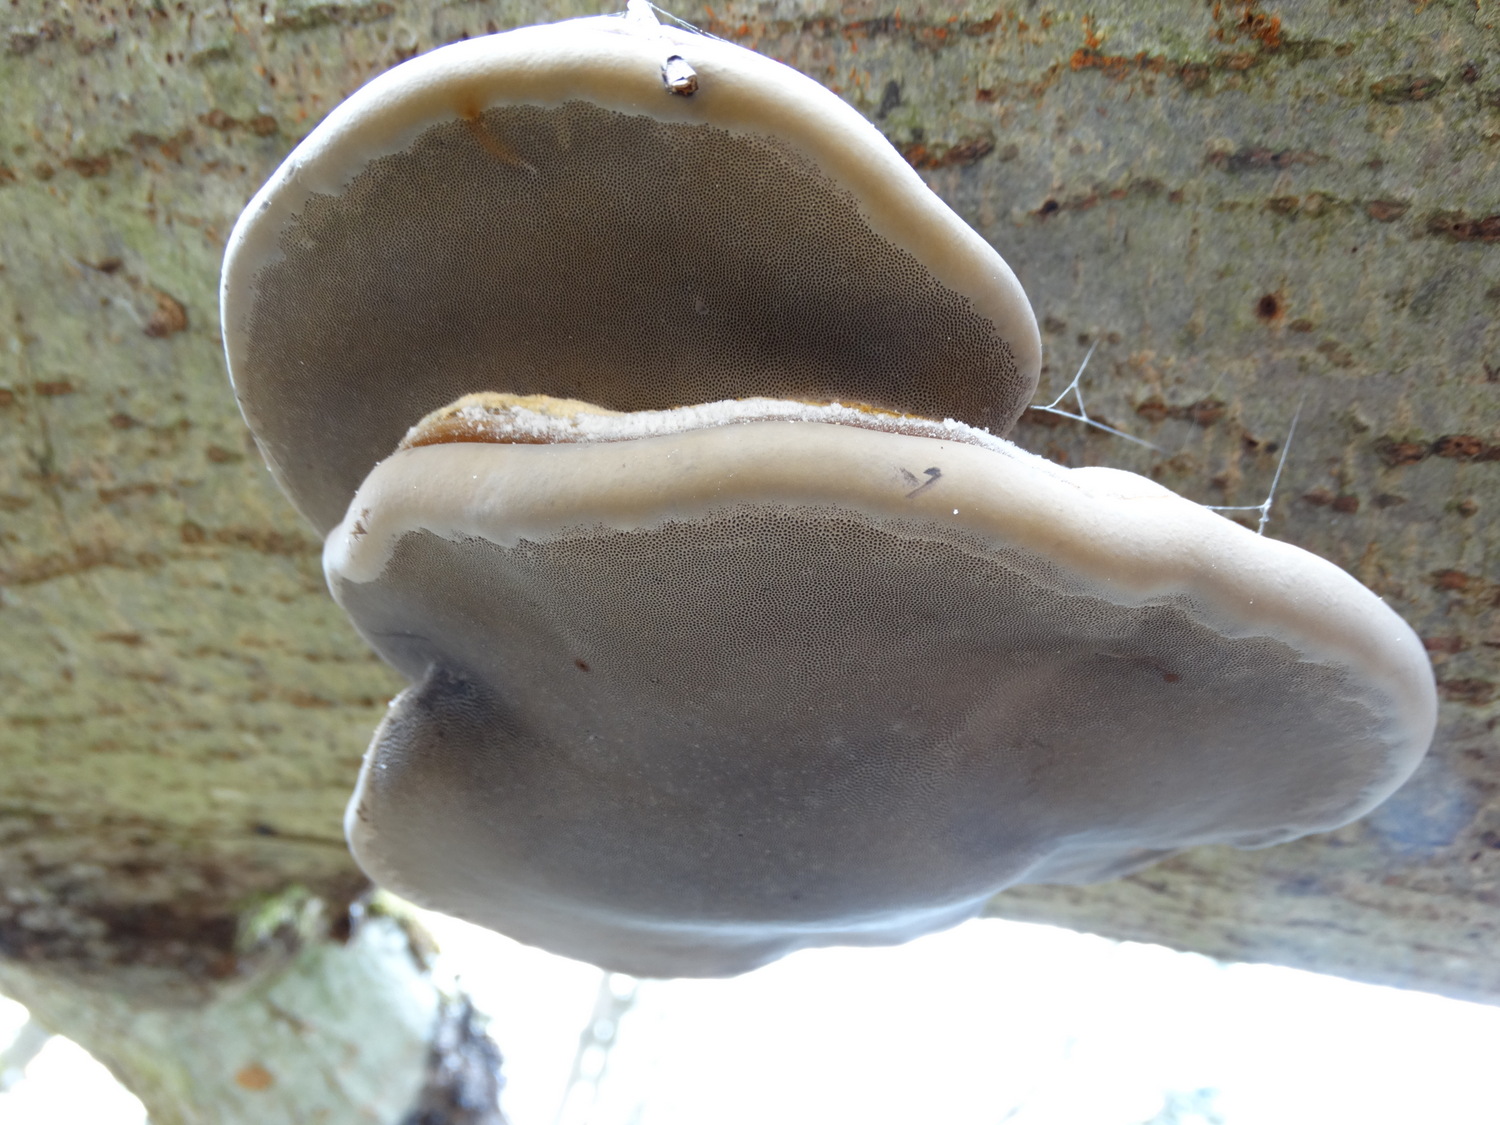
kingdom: Fungi
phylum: Basidiomycota
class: Agaricomycetes
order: Polyporales
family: Polyporaceae
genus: Fomes
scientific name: Fomes fomentarius
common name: tøndersvamp
